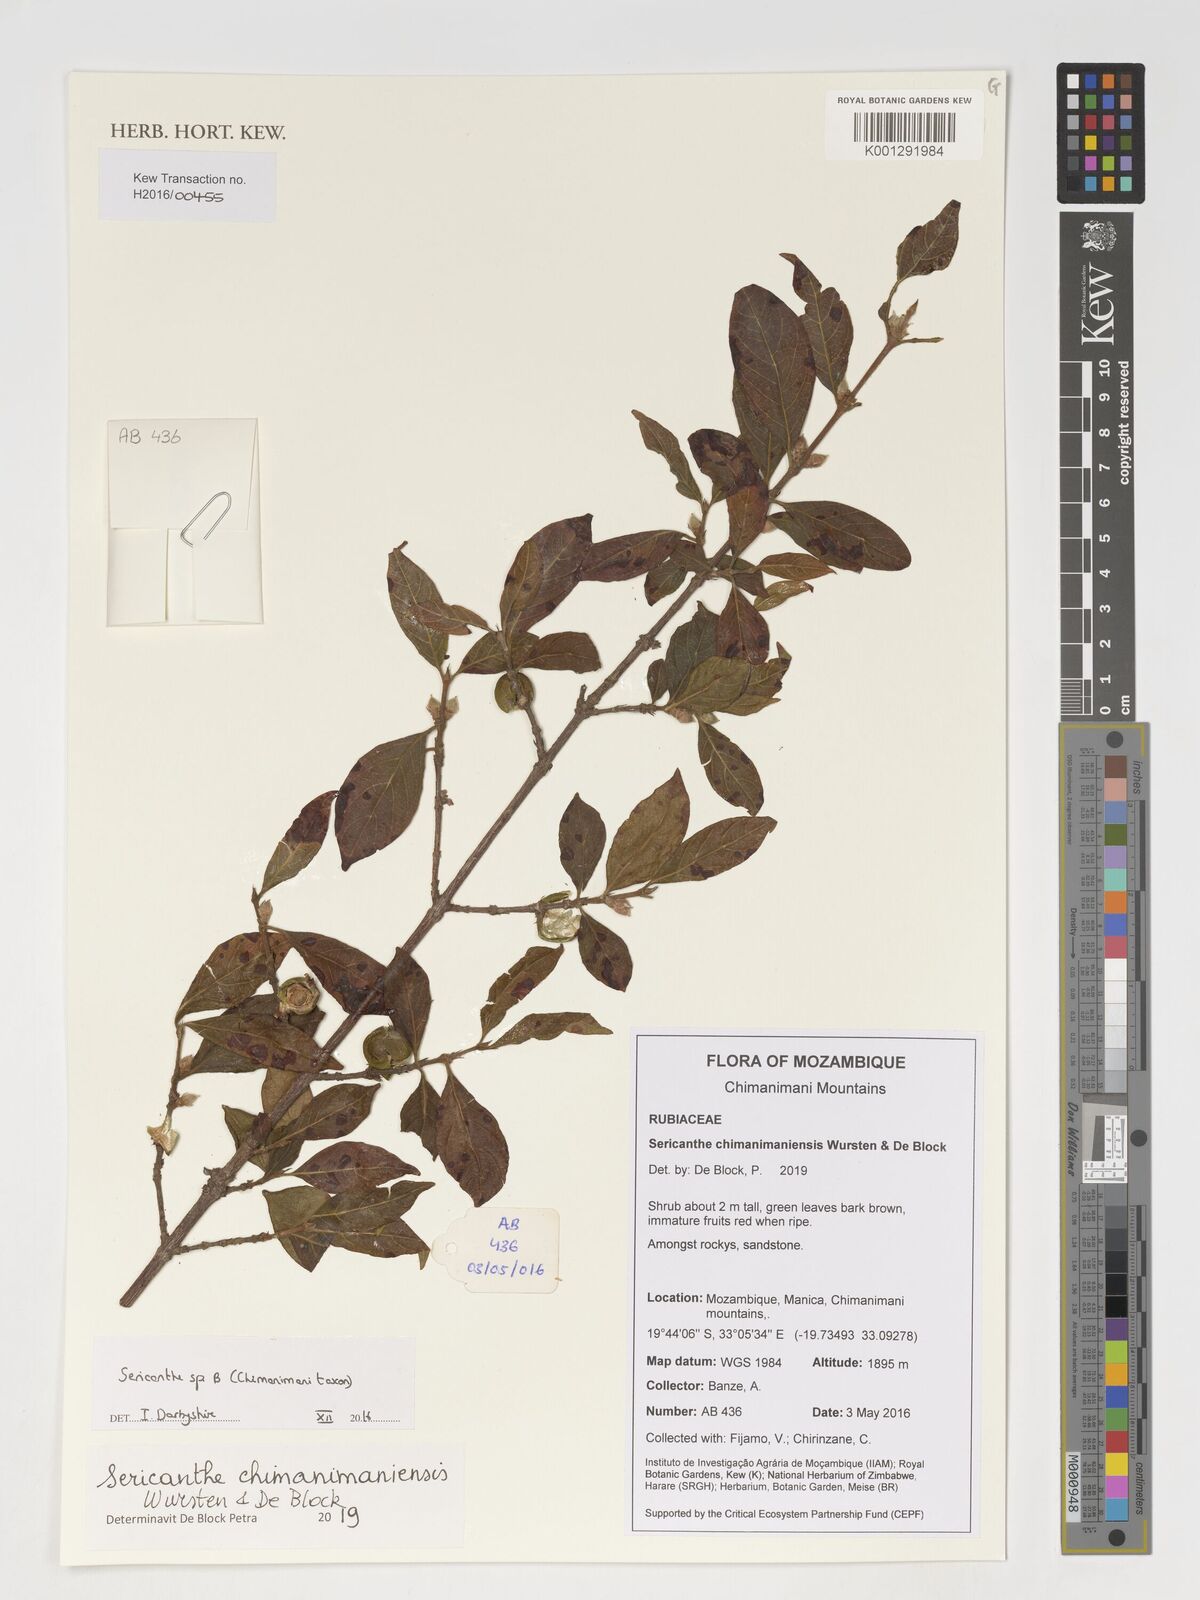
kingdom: Plantae
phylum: Tracheophyta
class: Magnoliopsida
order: Gentianales
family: Rubiaceae
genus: Sericanthe
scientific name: Sericanthe
